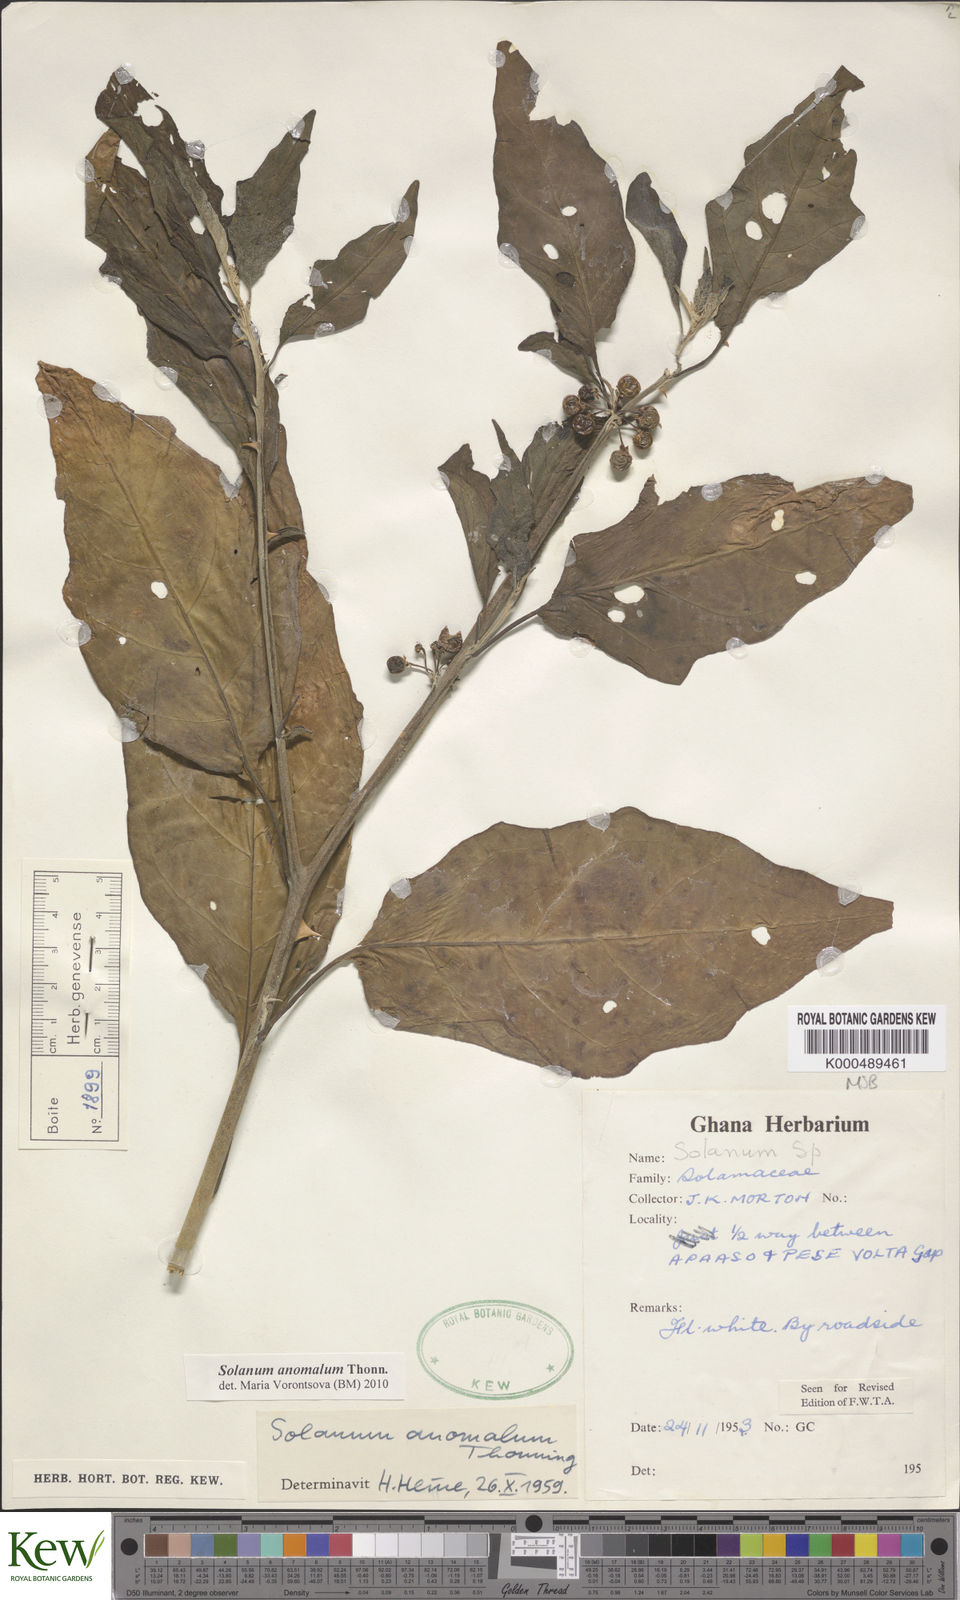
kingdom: Plantae
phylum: Tracheophyta
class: Magnoliopsida
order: Solanales
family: Solanaceae
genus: Solanum
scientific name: Solanum anomalum
